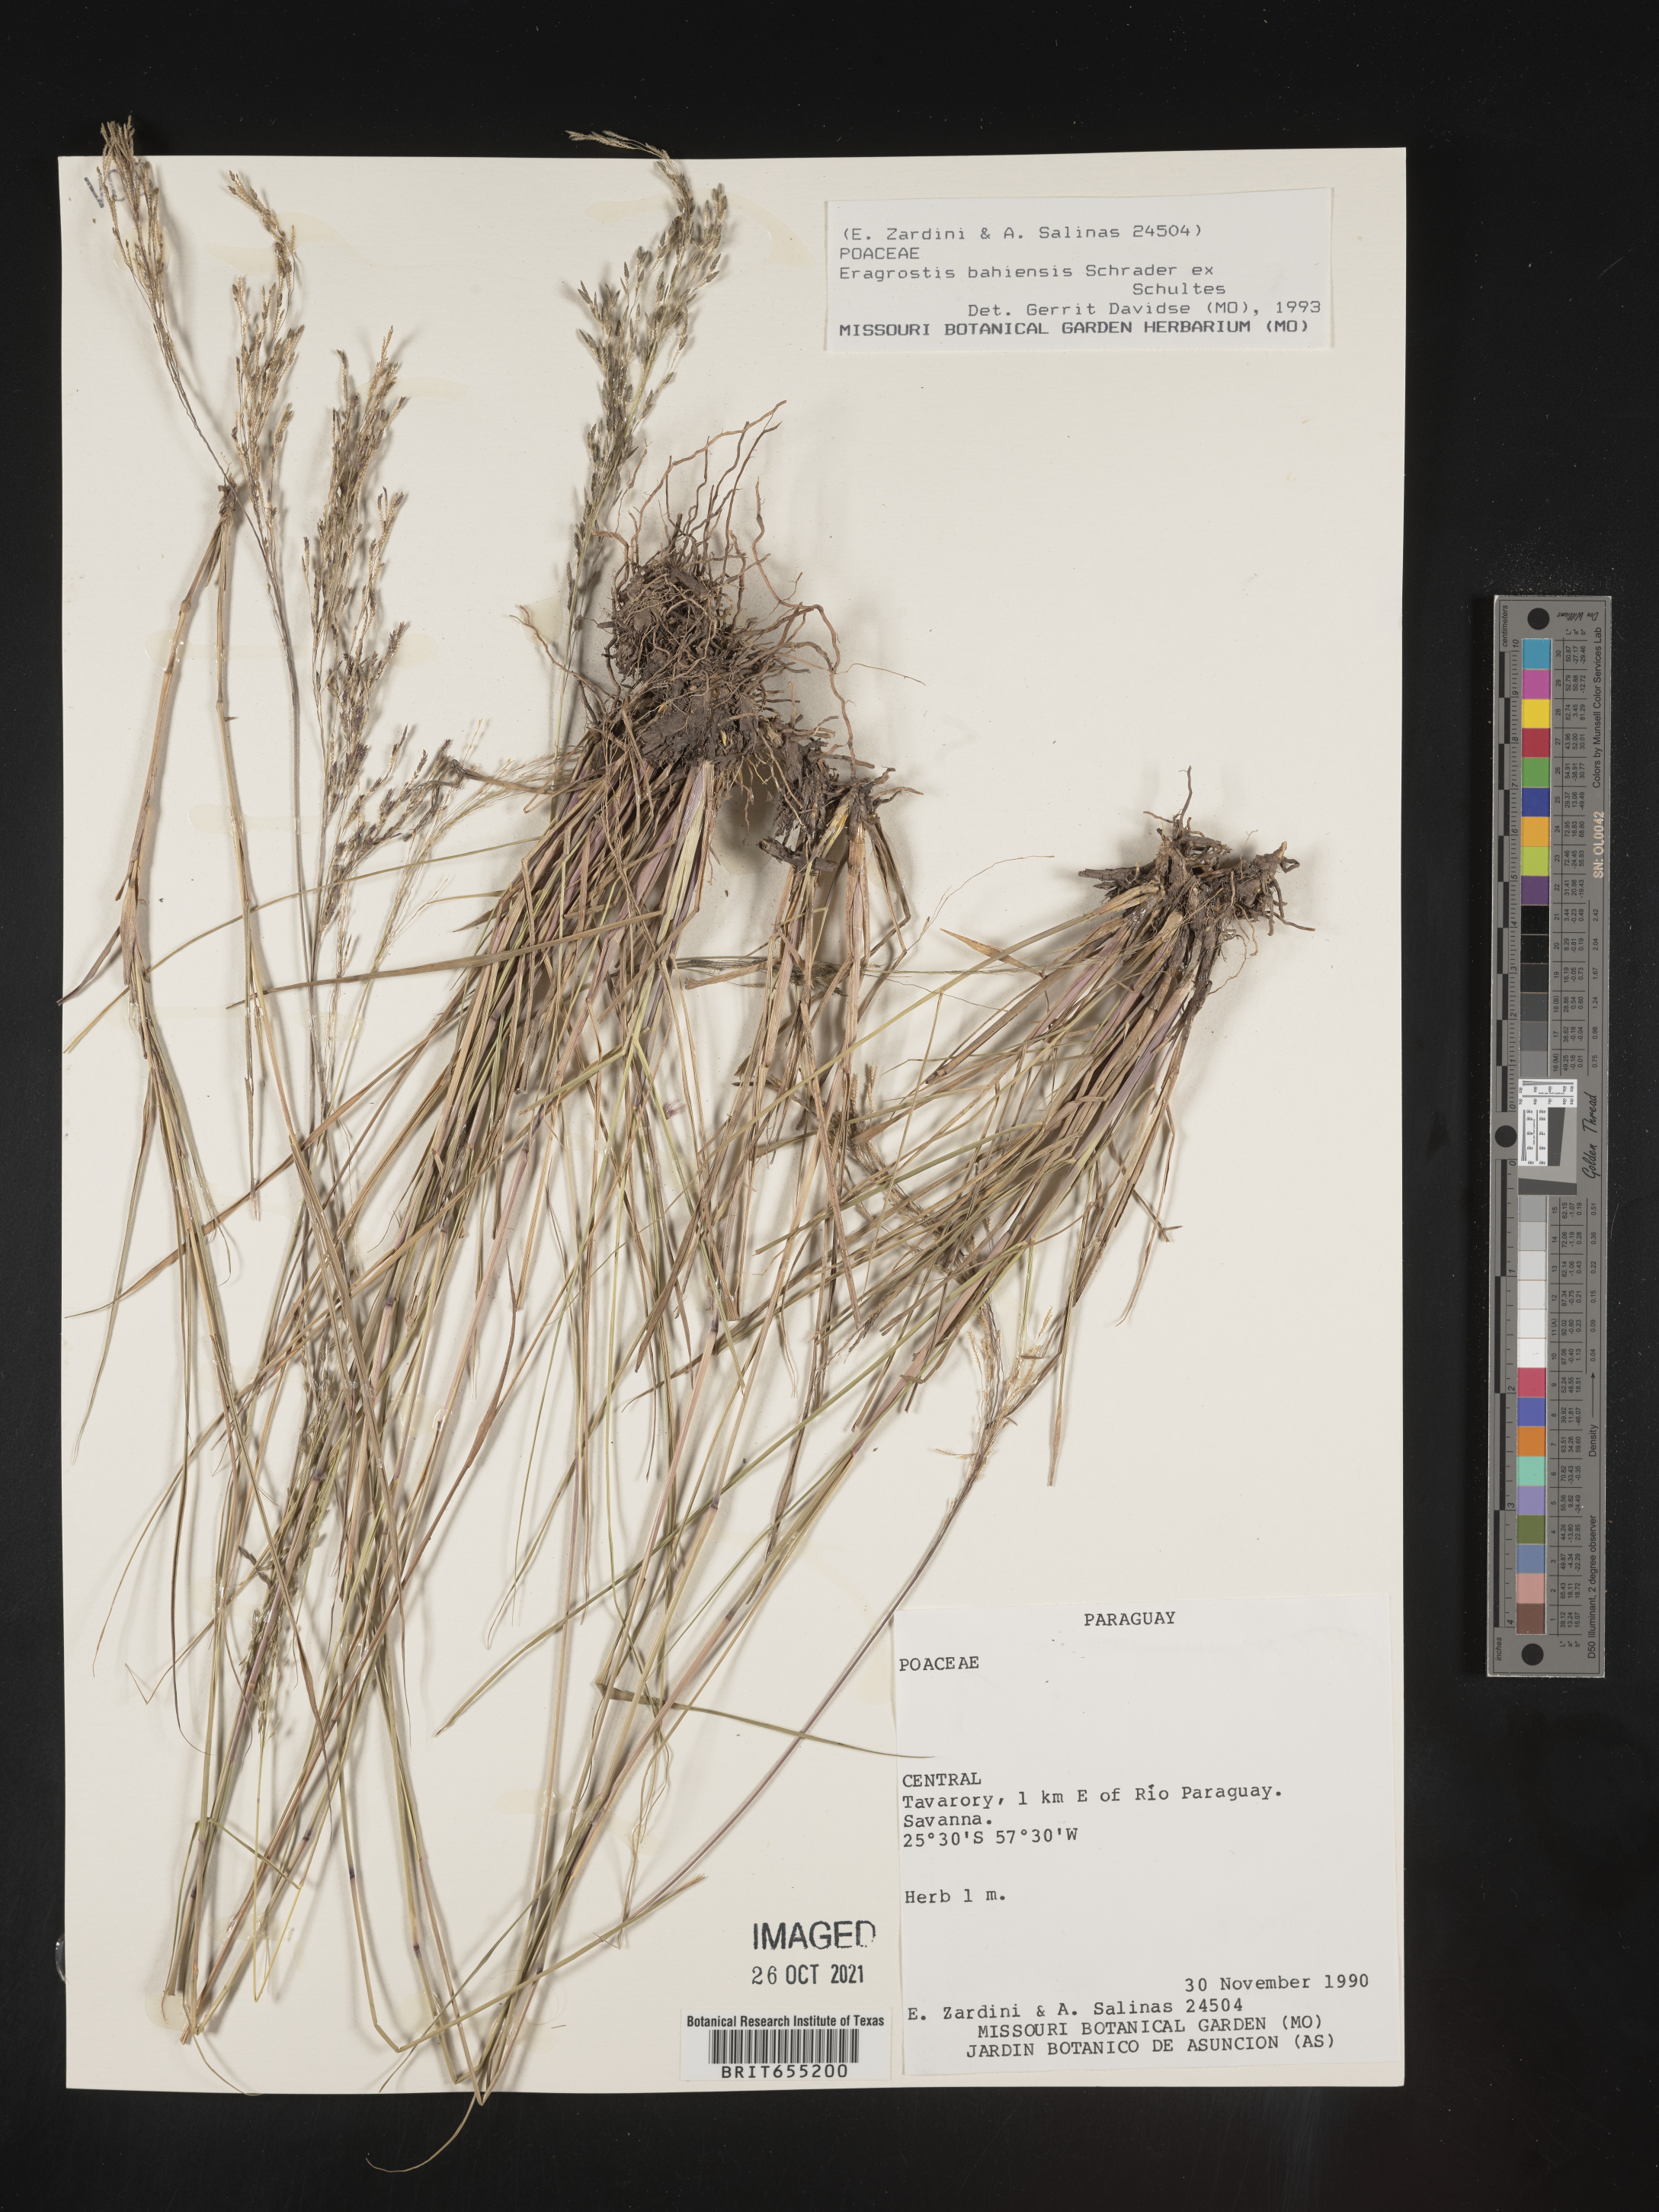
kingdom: Plantae
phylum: Tracheophyta
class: Liliopsida
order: Poales
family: Poaceae
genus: Eragrostis
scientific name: Eragrostis
